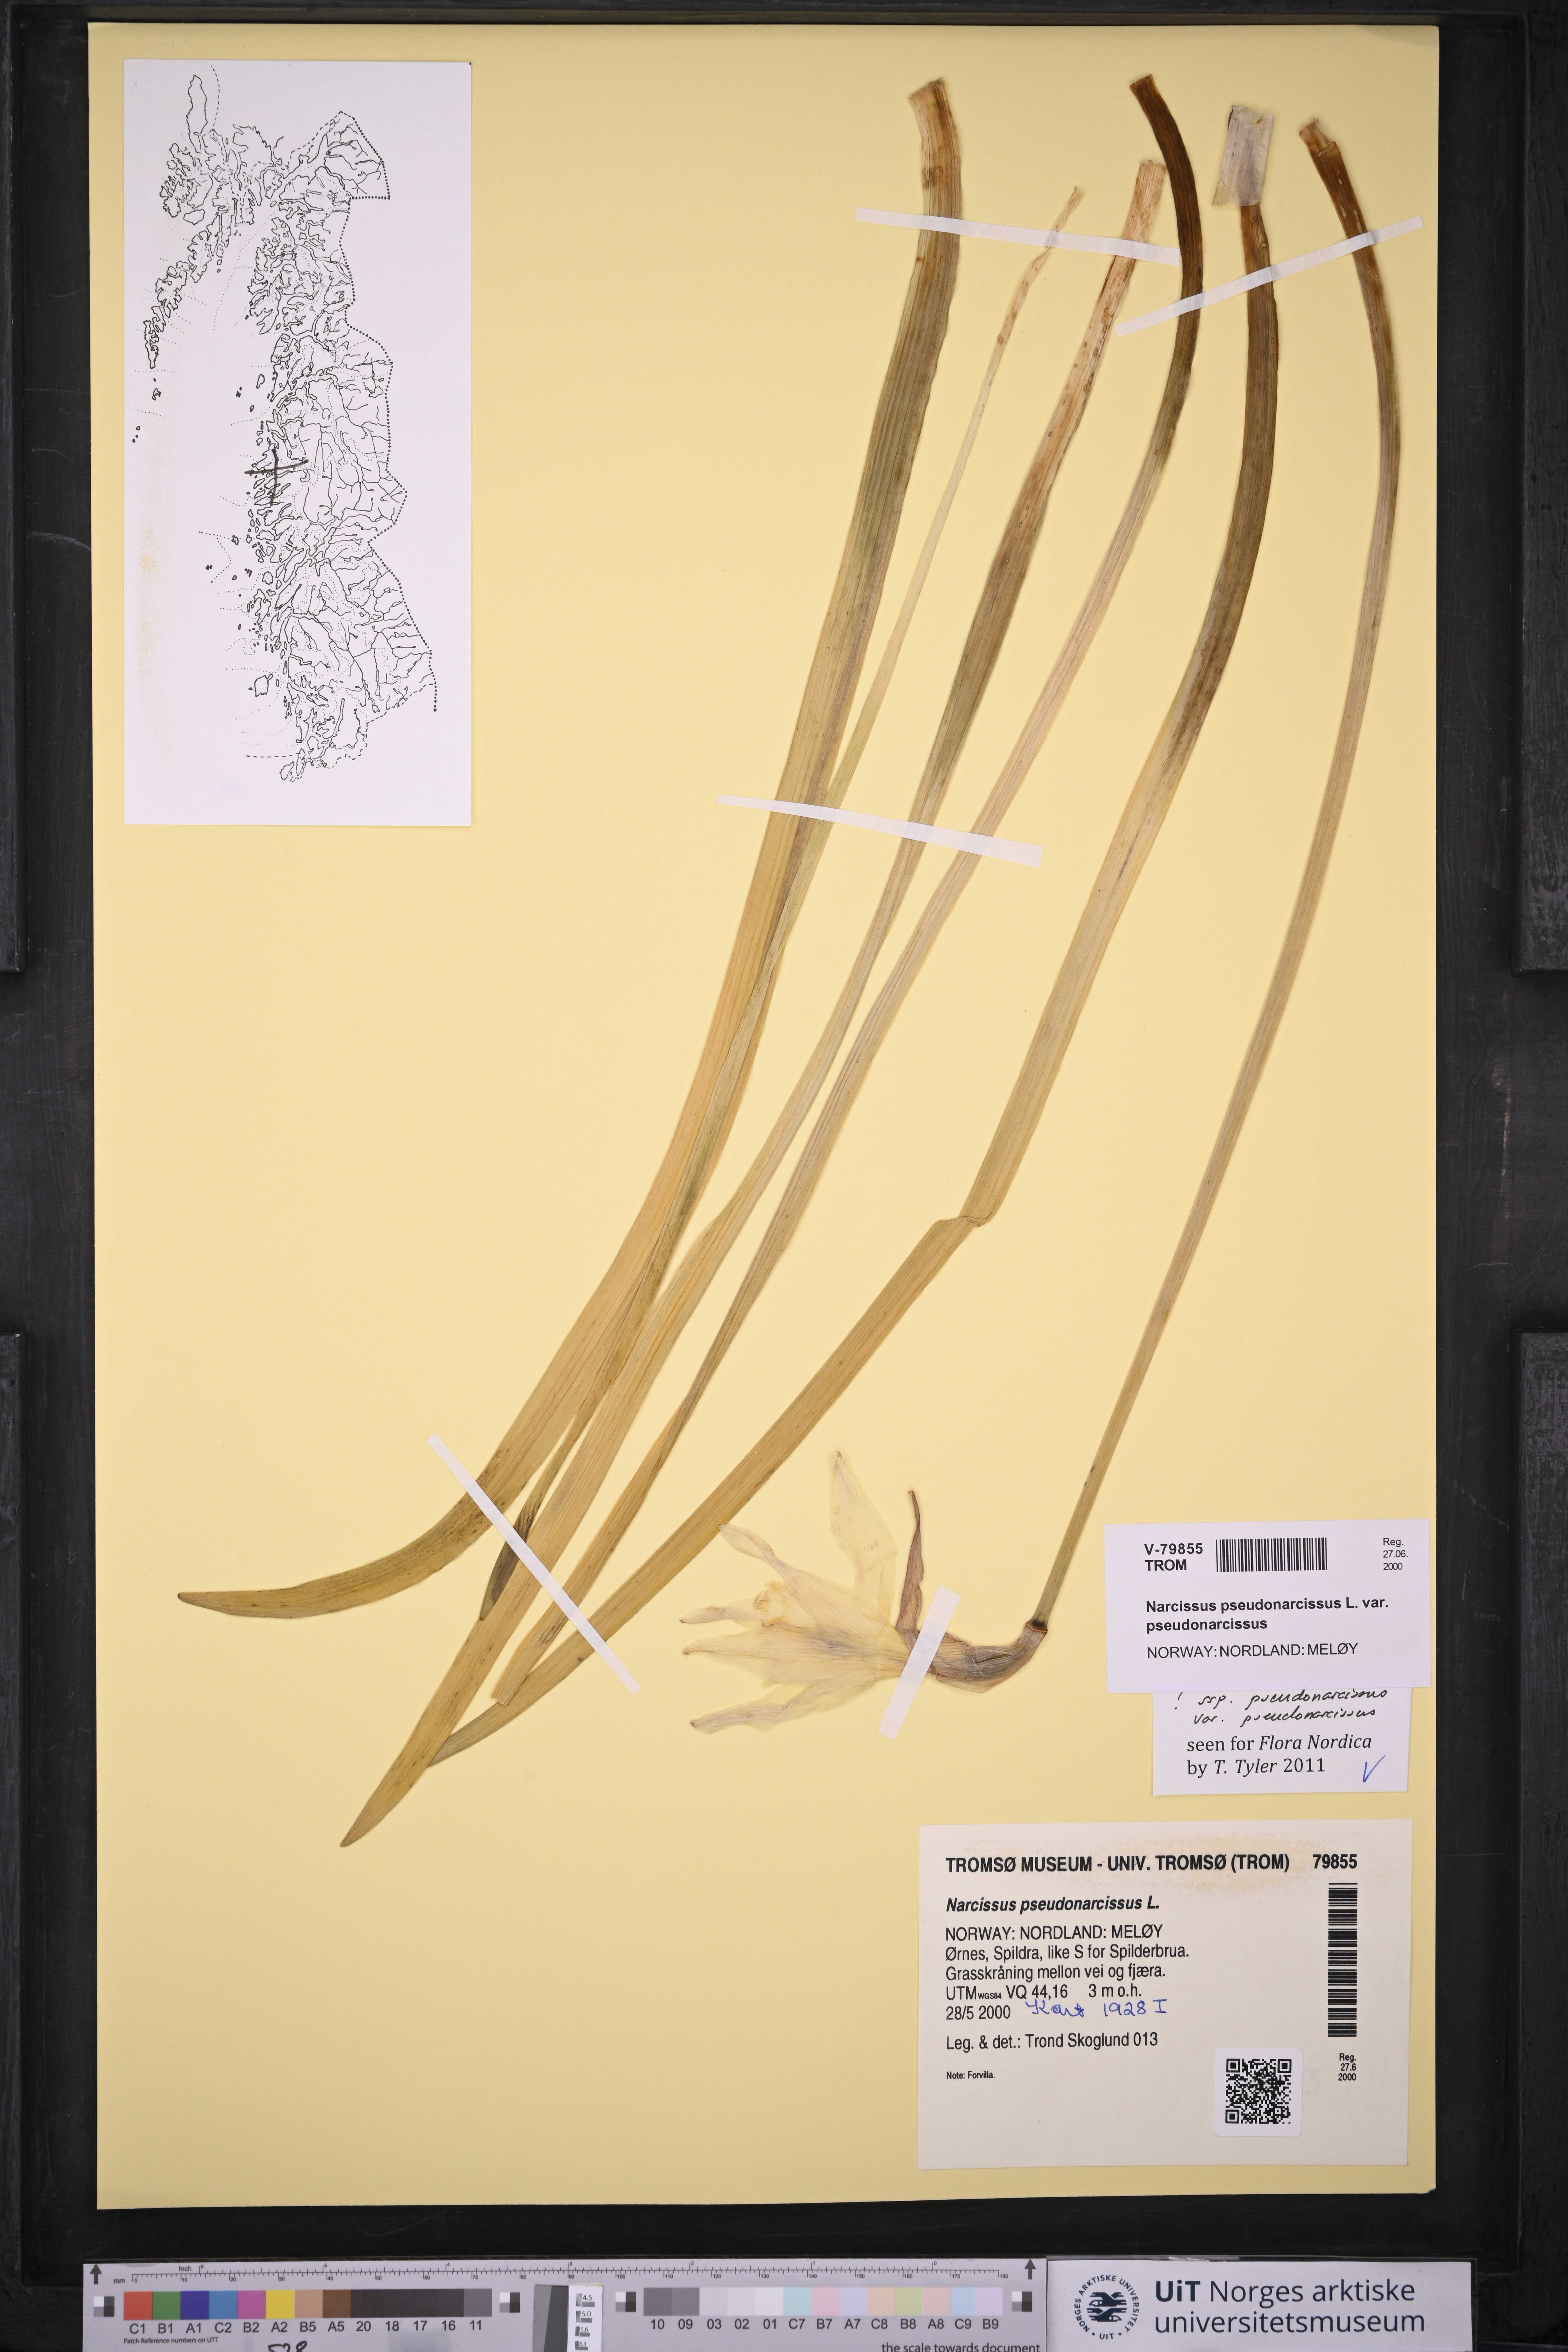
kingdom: Plantae
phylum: Tracheophyta
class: Liliopsida
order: Asparagales
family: Amaryllidaceae
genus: Narcissus
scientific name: Narcissus pseudonarcissus
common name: Daffodil
